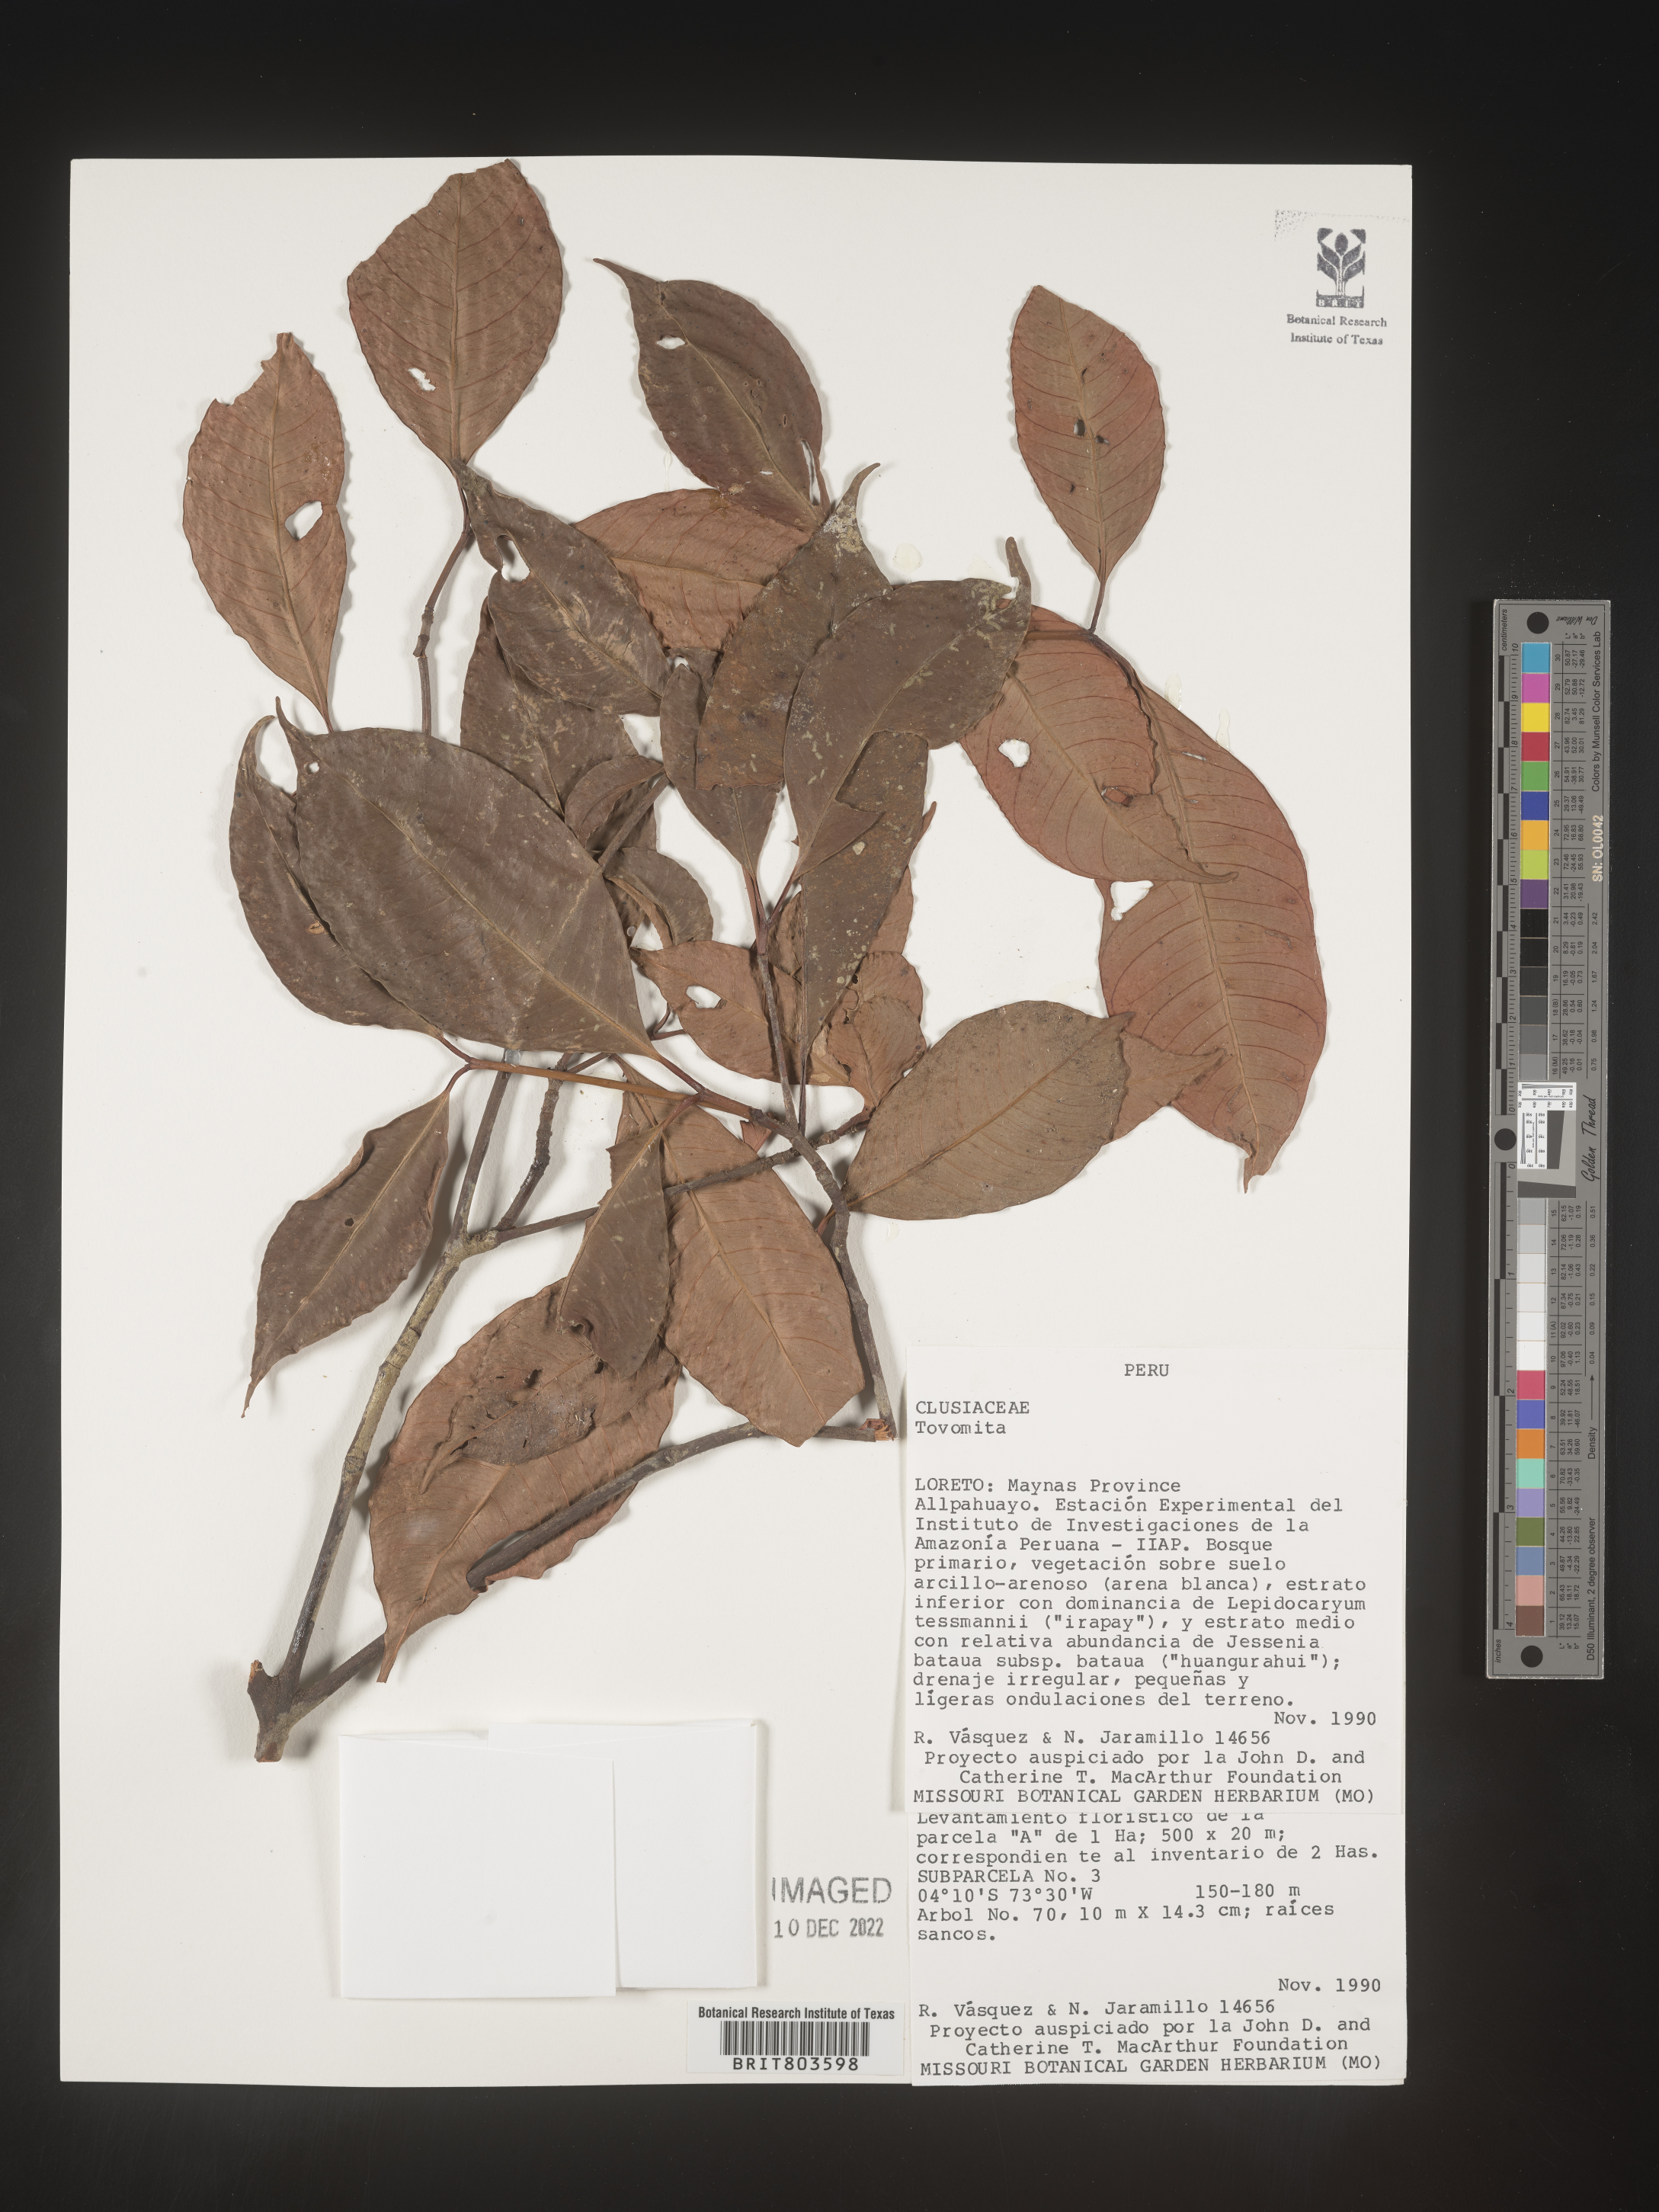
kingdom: Plantae
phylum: Tracheophyta
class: Magnoliopsida
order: Malpighiales
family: Clusiaceae
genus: Tovomita
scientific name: Tovomita
